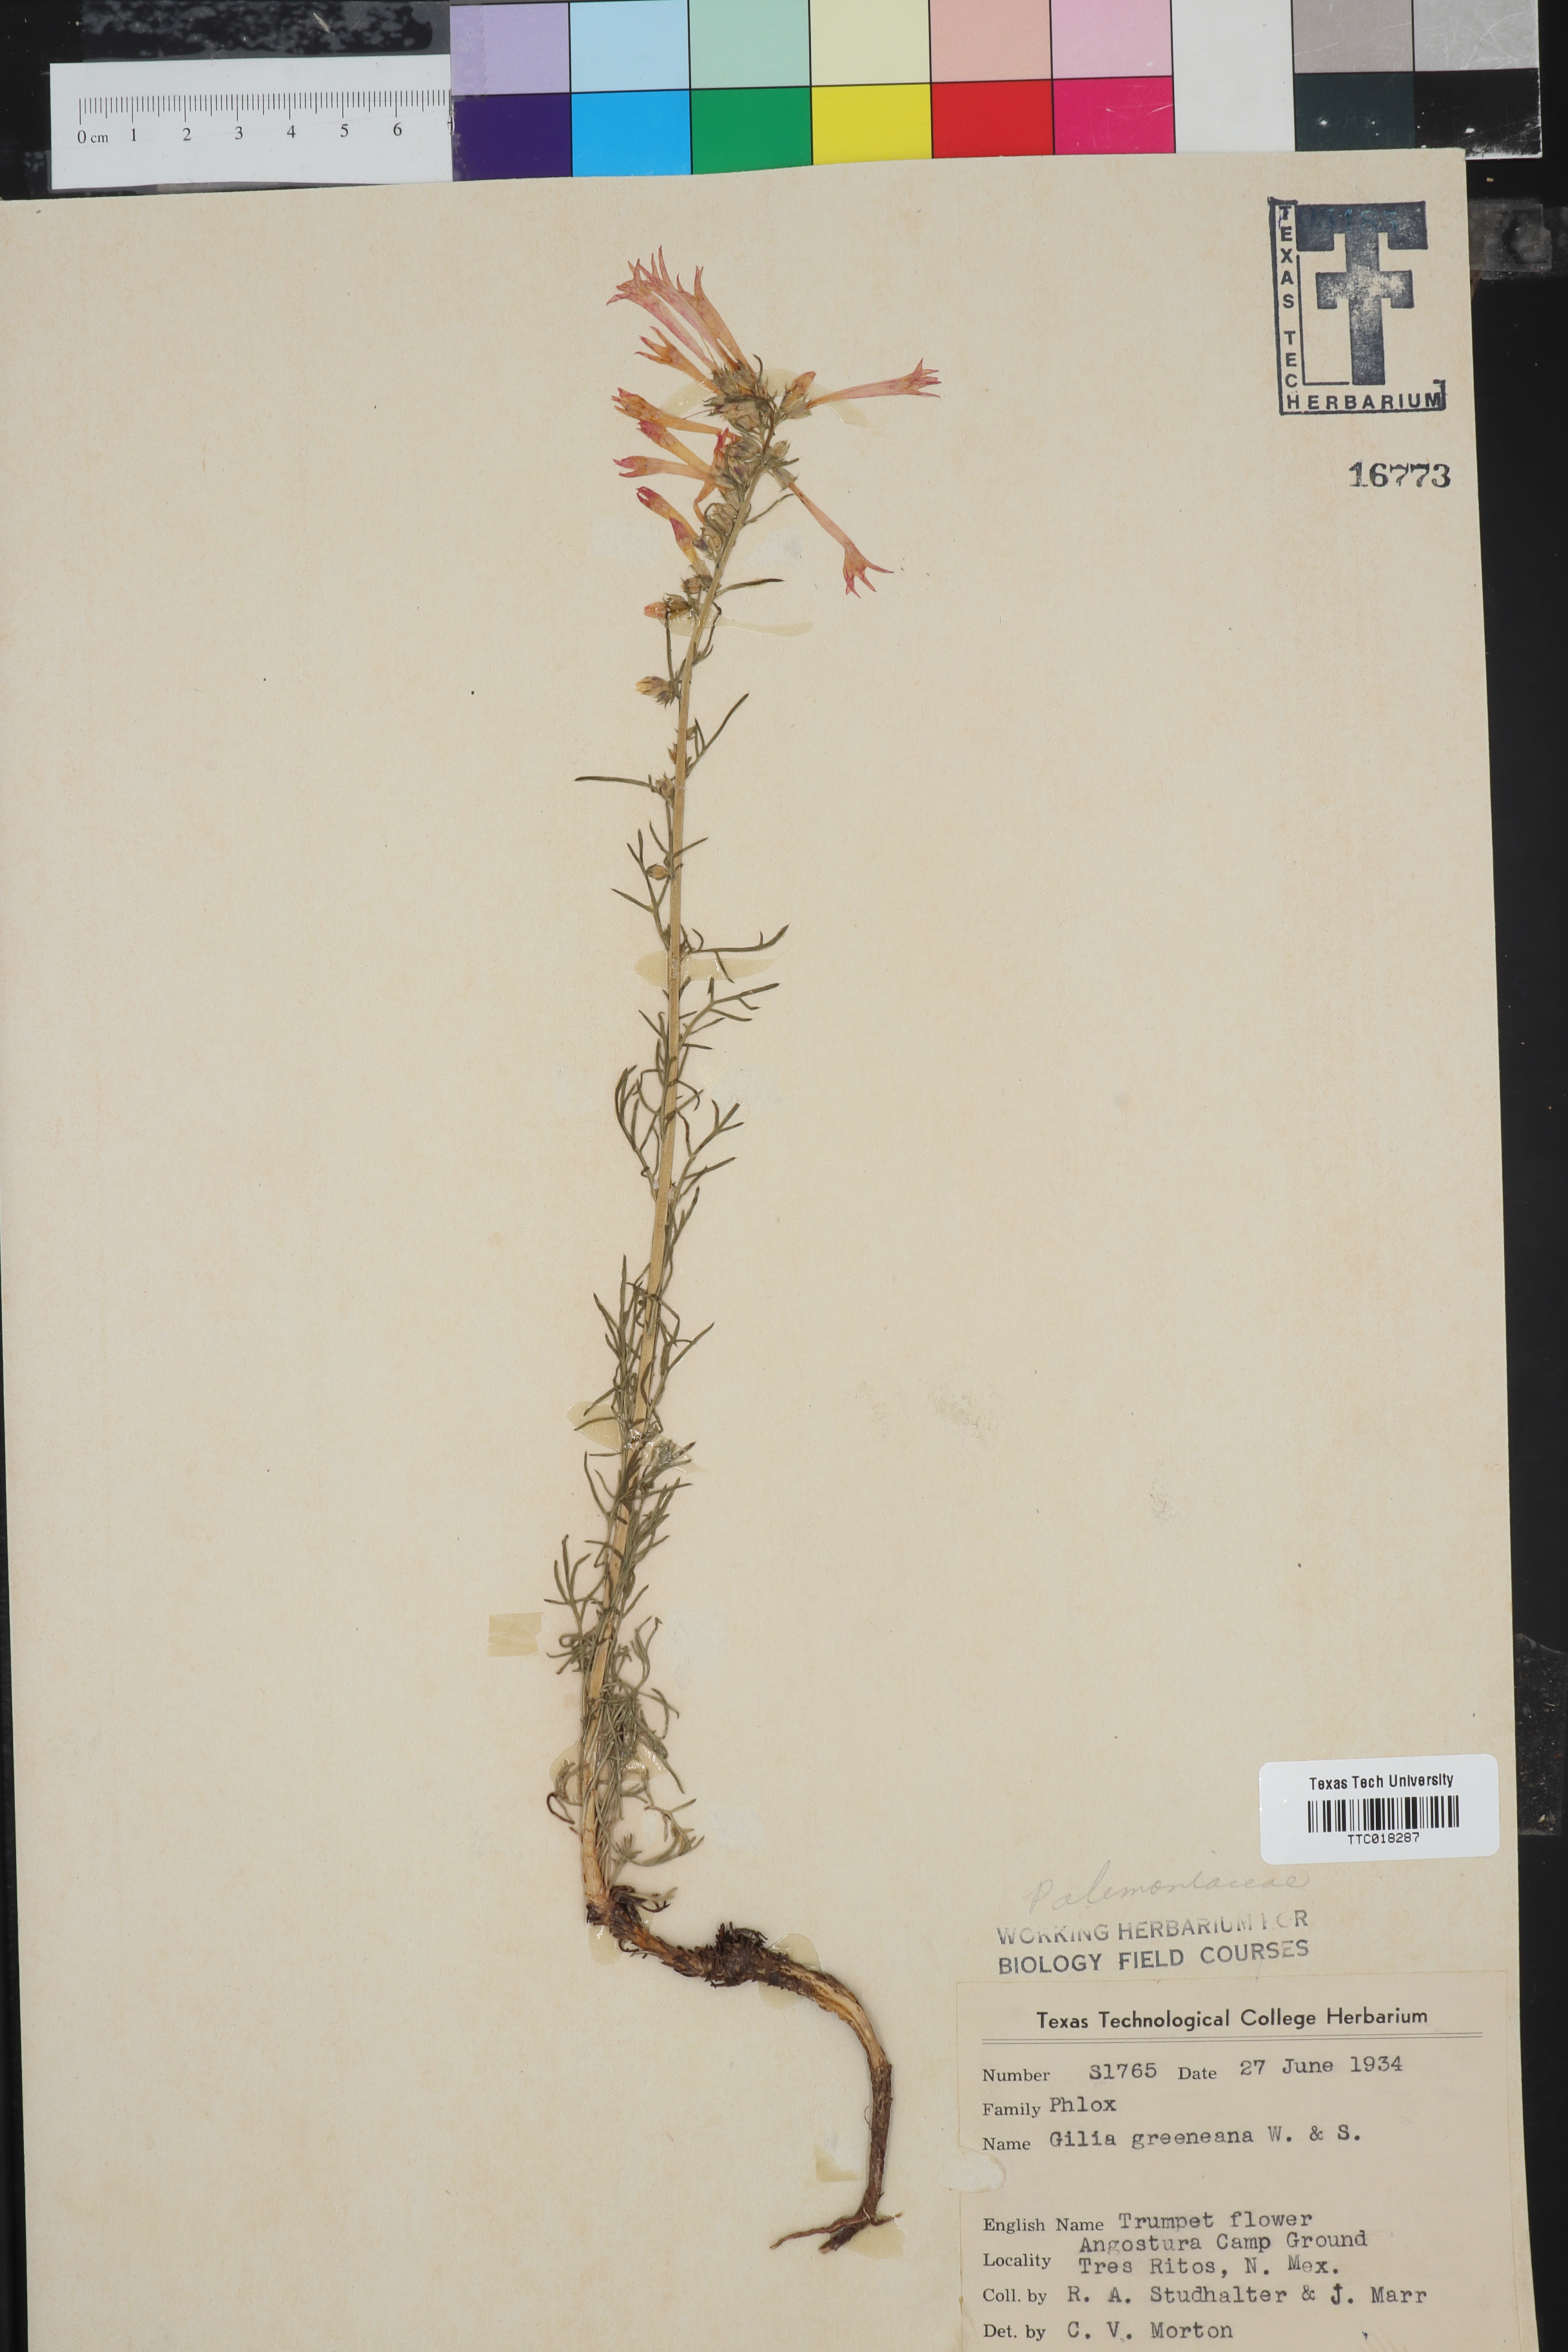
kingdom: Plantae
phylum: Tracheophyta
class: Magnoliopsida
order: Ericales
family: Polemoniaceae
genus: Ipomopsis
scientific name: Ipomopsis aggregata
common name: Scarlet gilia
